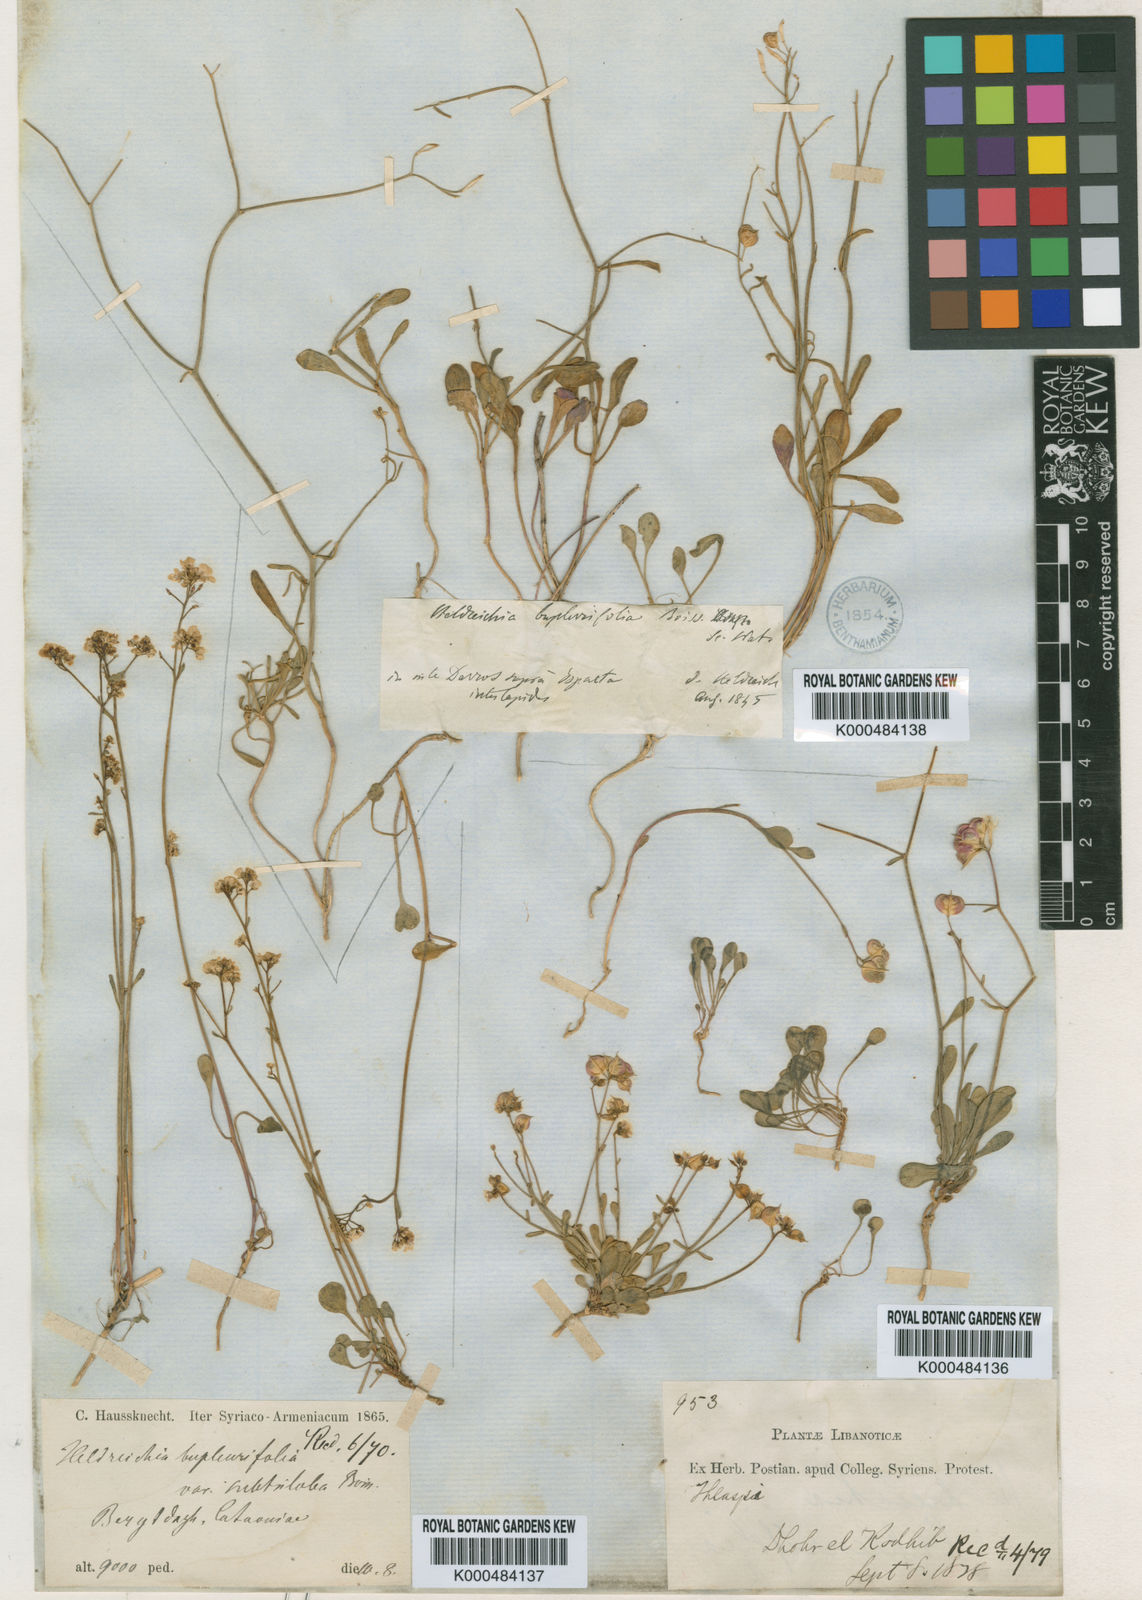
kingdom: Plantae
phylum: Tracheophyta
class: Magnoliopsida
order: Brassicales
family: Brassicaceae
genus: Heldreichia
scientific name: Heldreichia
